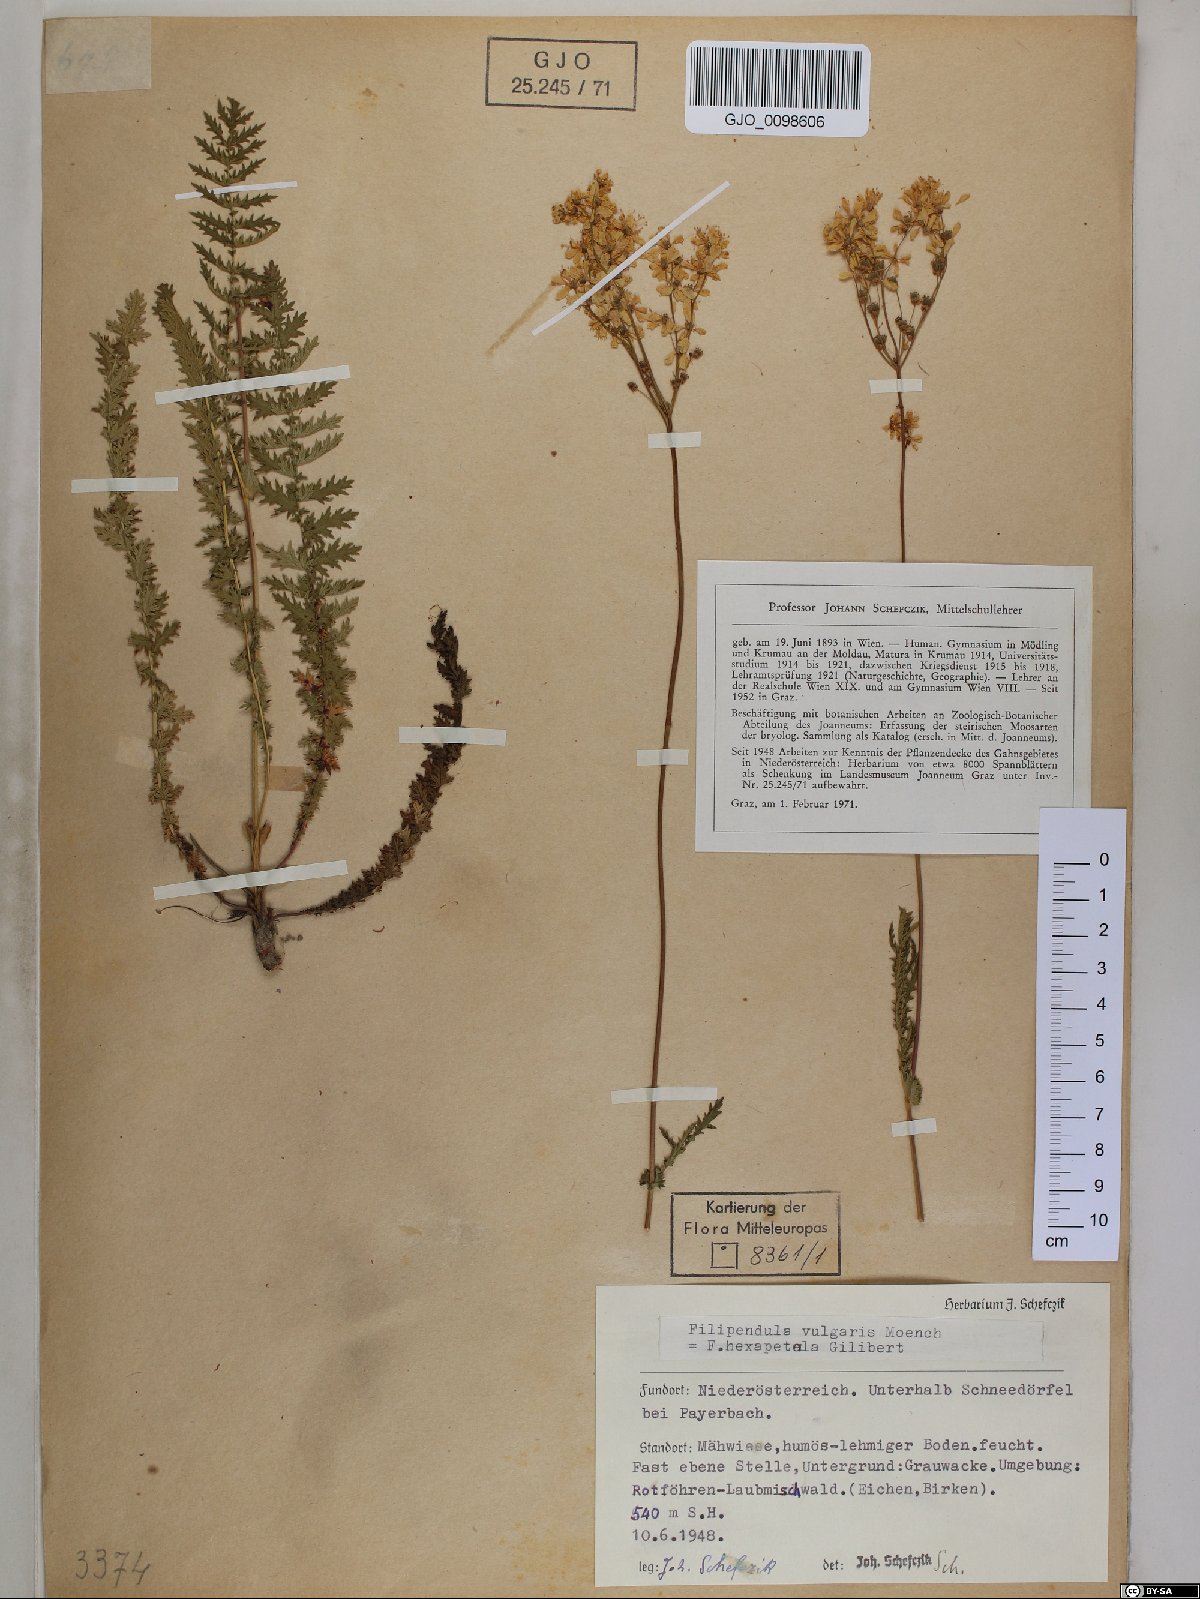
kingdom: Plantae
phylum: Tracheophyta
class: Magnoliopsida
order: Rosales
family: Rosaceae
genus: Filipendula
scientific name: Filipendula vulgaris
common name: Dropwort
